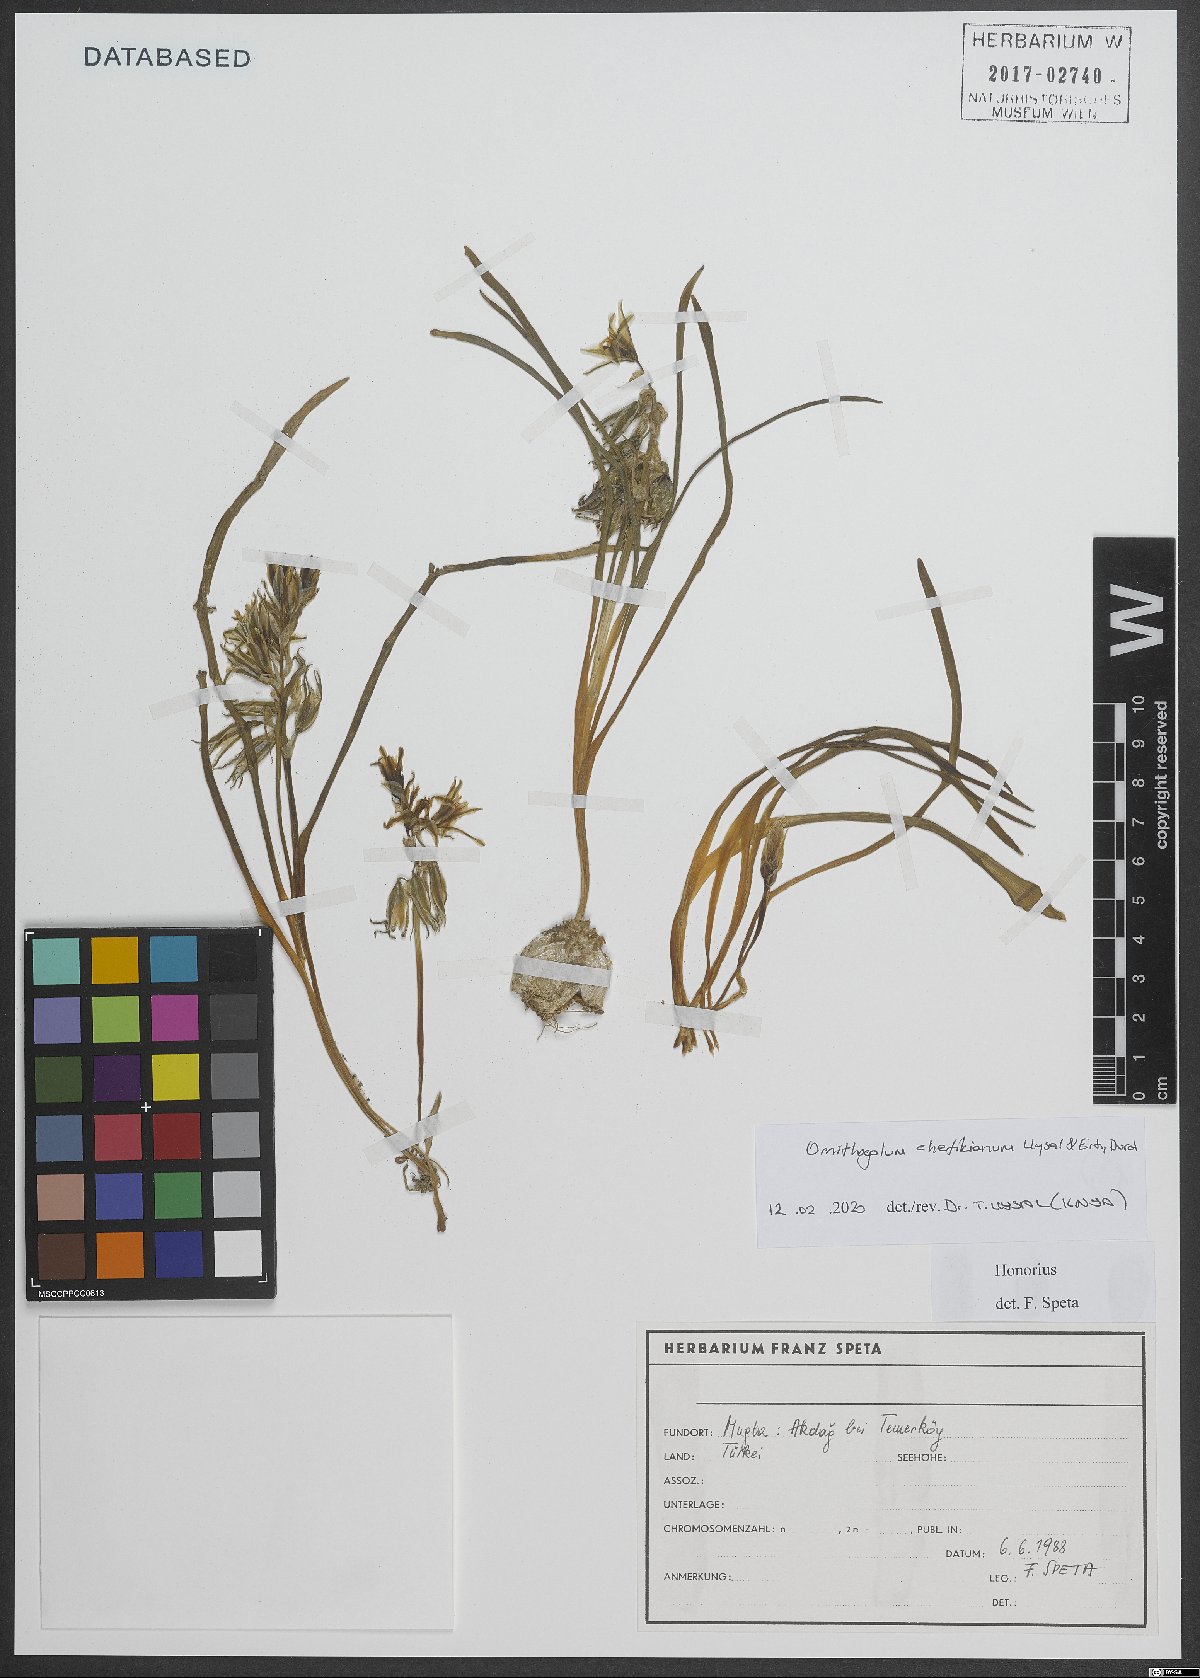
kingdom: Plantae
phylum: Tracheophyta
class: Liliopsida
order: Asparagales
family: Asparagaceae
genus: Ornithogalum
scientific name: Ornithogalum chetikianum
